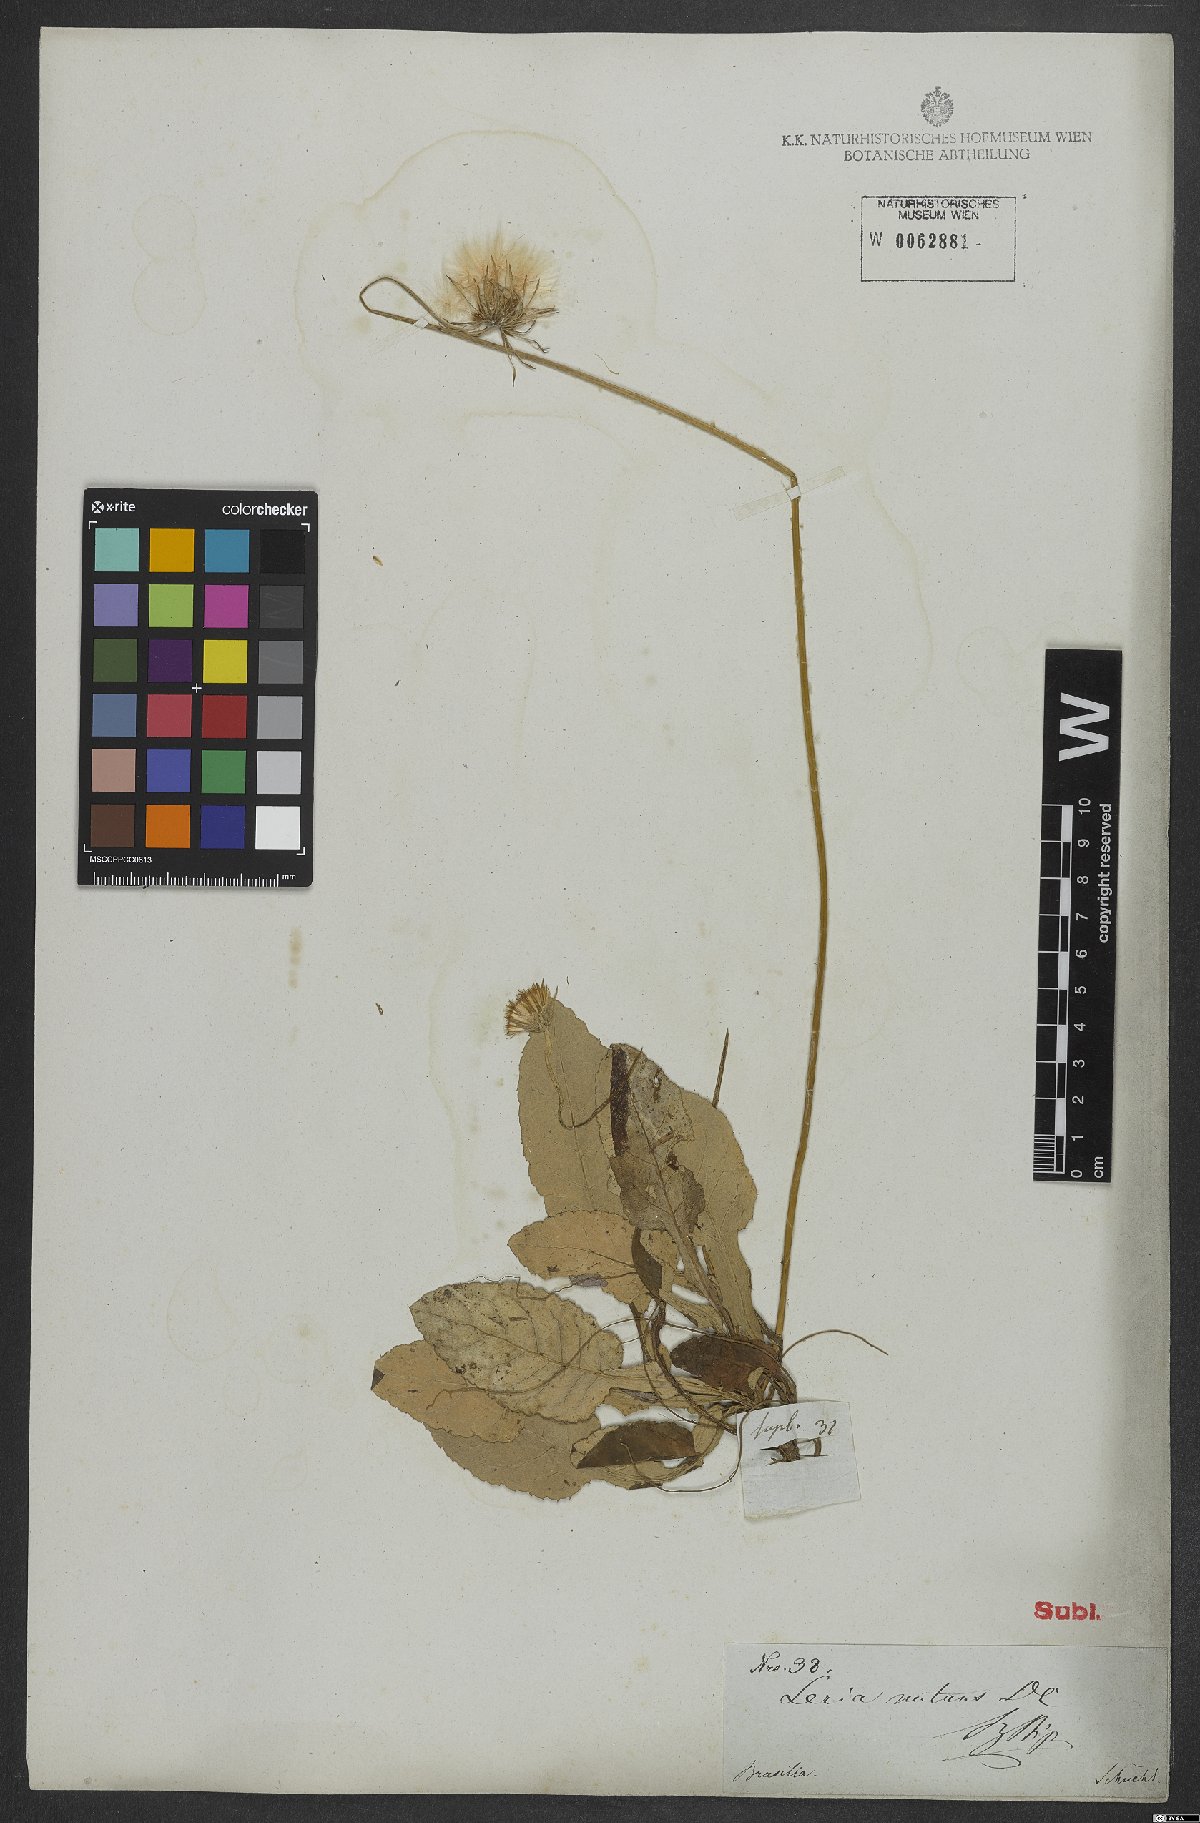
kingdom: Plantae
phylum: Tracheophyta
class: Magnoliopsida
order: Asterales
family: Asteraceae
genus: Chaptalia
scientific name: Chaptalia nutans
